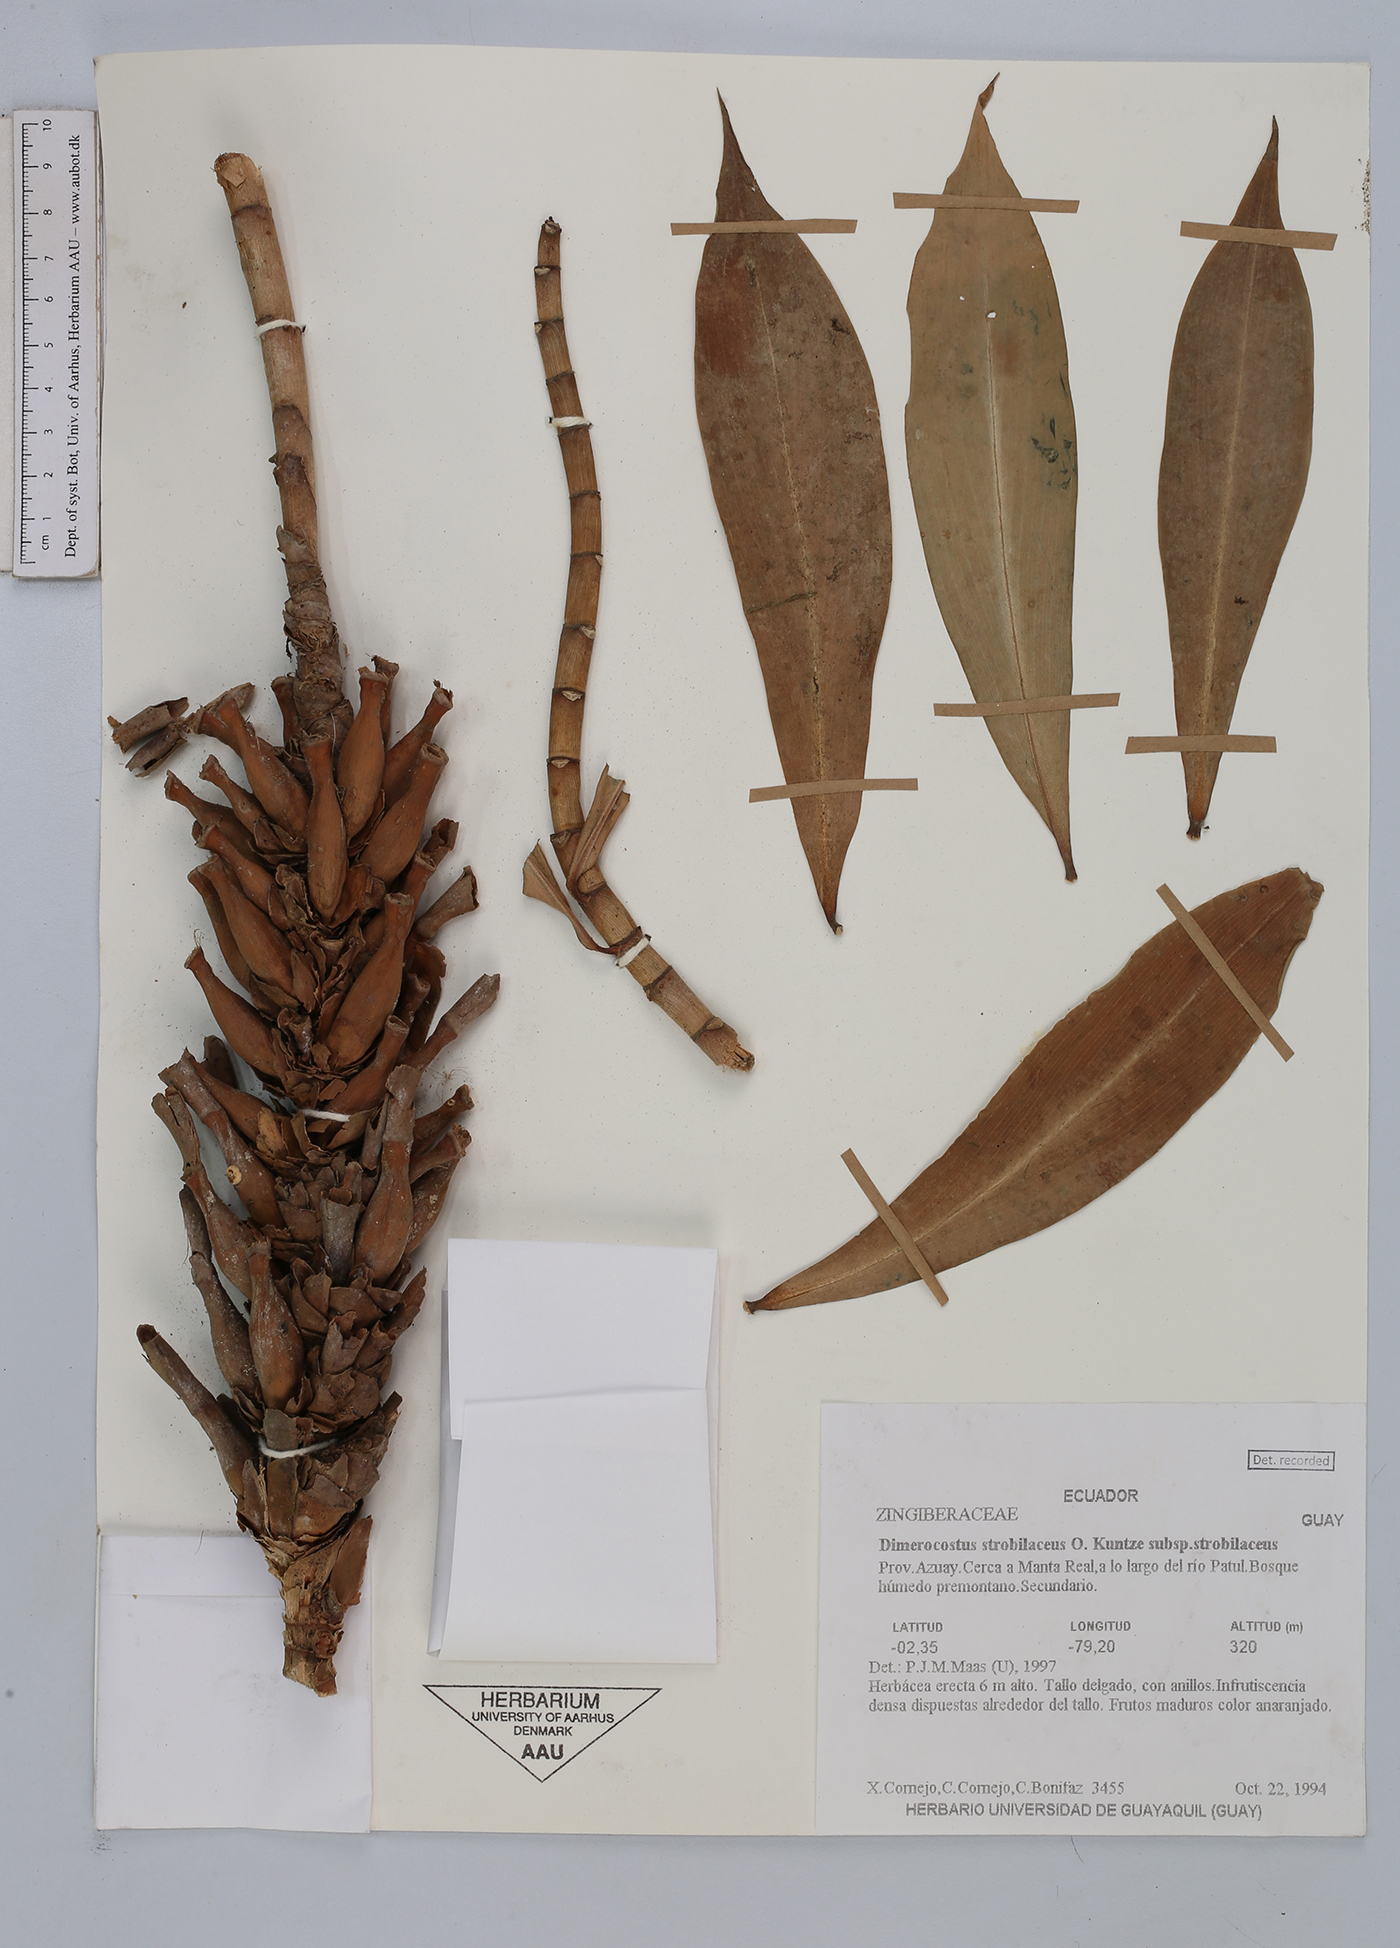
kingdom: Plantae
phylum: Tracheophyta
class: Liliopsida
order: Zingiberales
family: Costaceae
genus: Dimerocostus
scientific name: Dimerocostus strobilaceus
